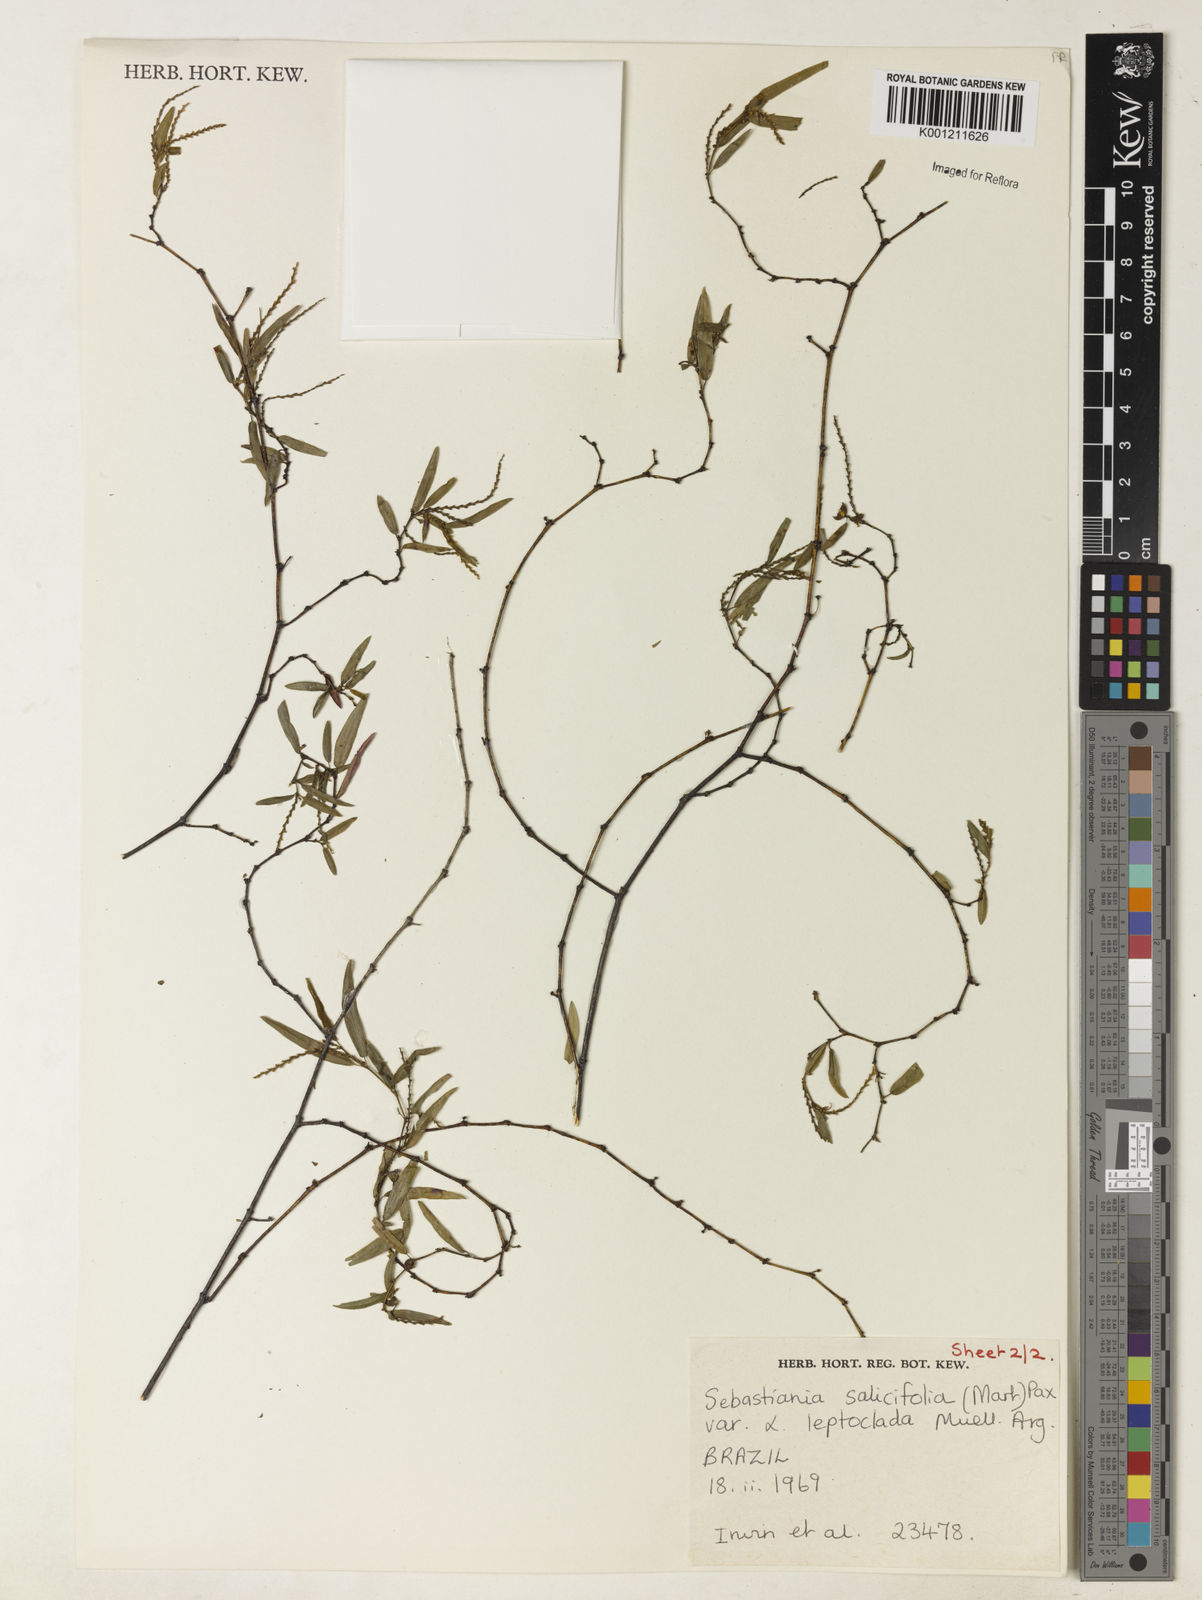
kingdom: Plantae
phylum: Tracheophyta
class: Magnoliopsida
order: Malpighiales
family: Euphorbiaceae
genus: Microstachys
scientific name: Microstachys
